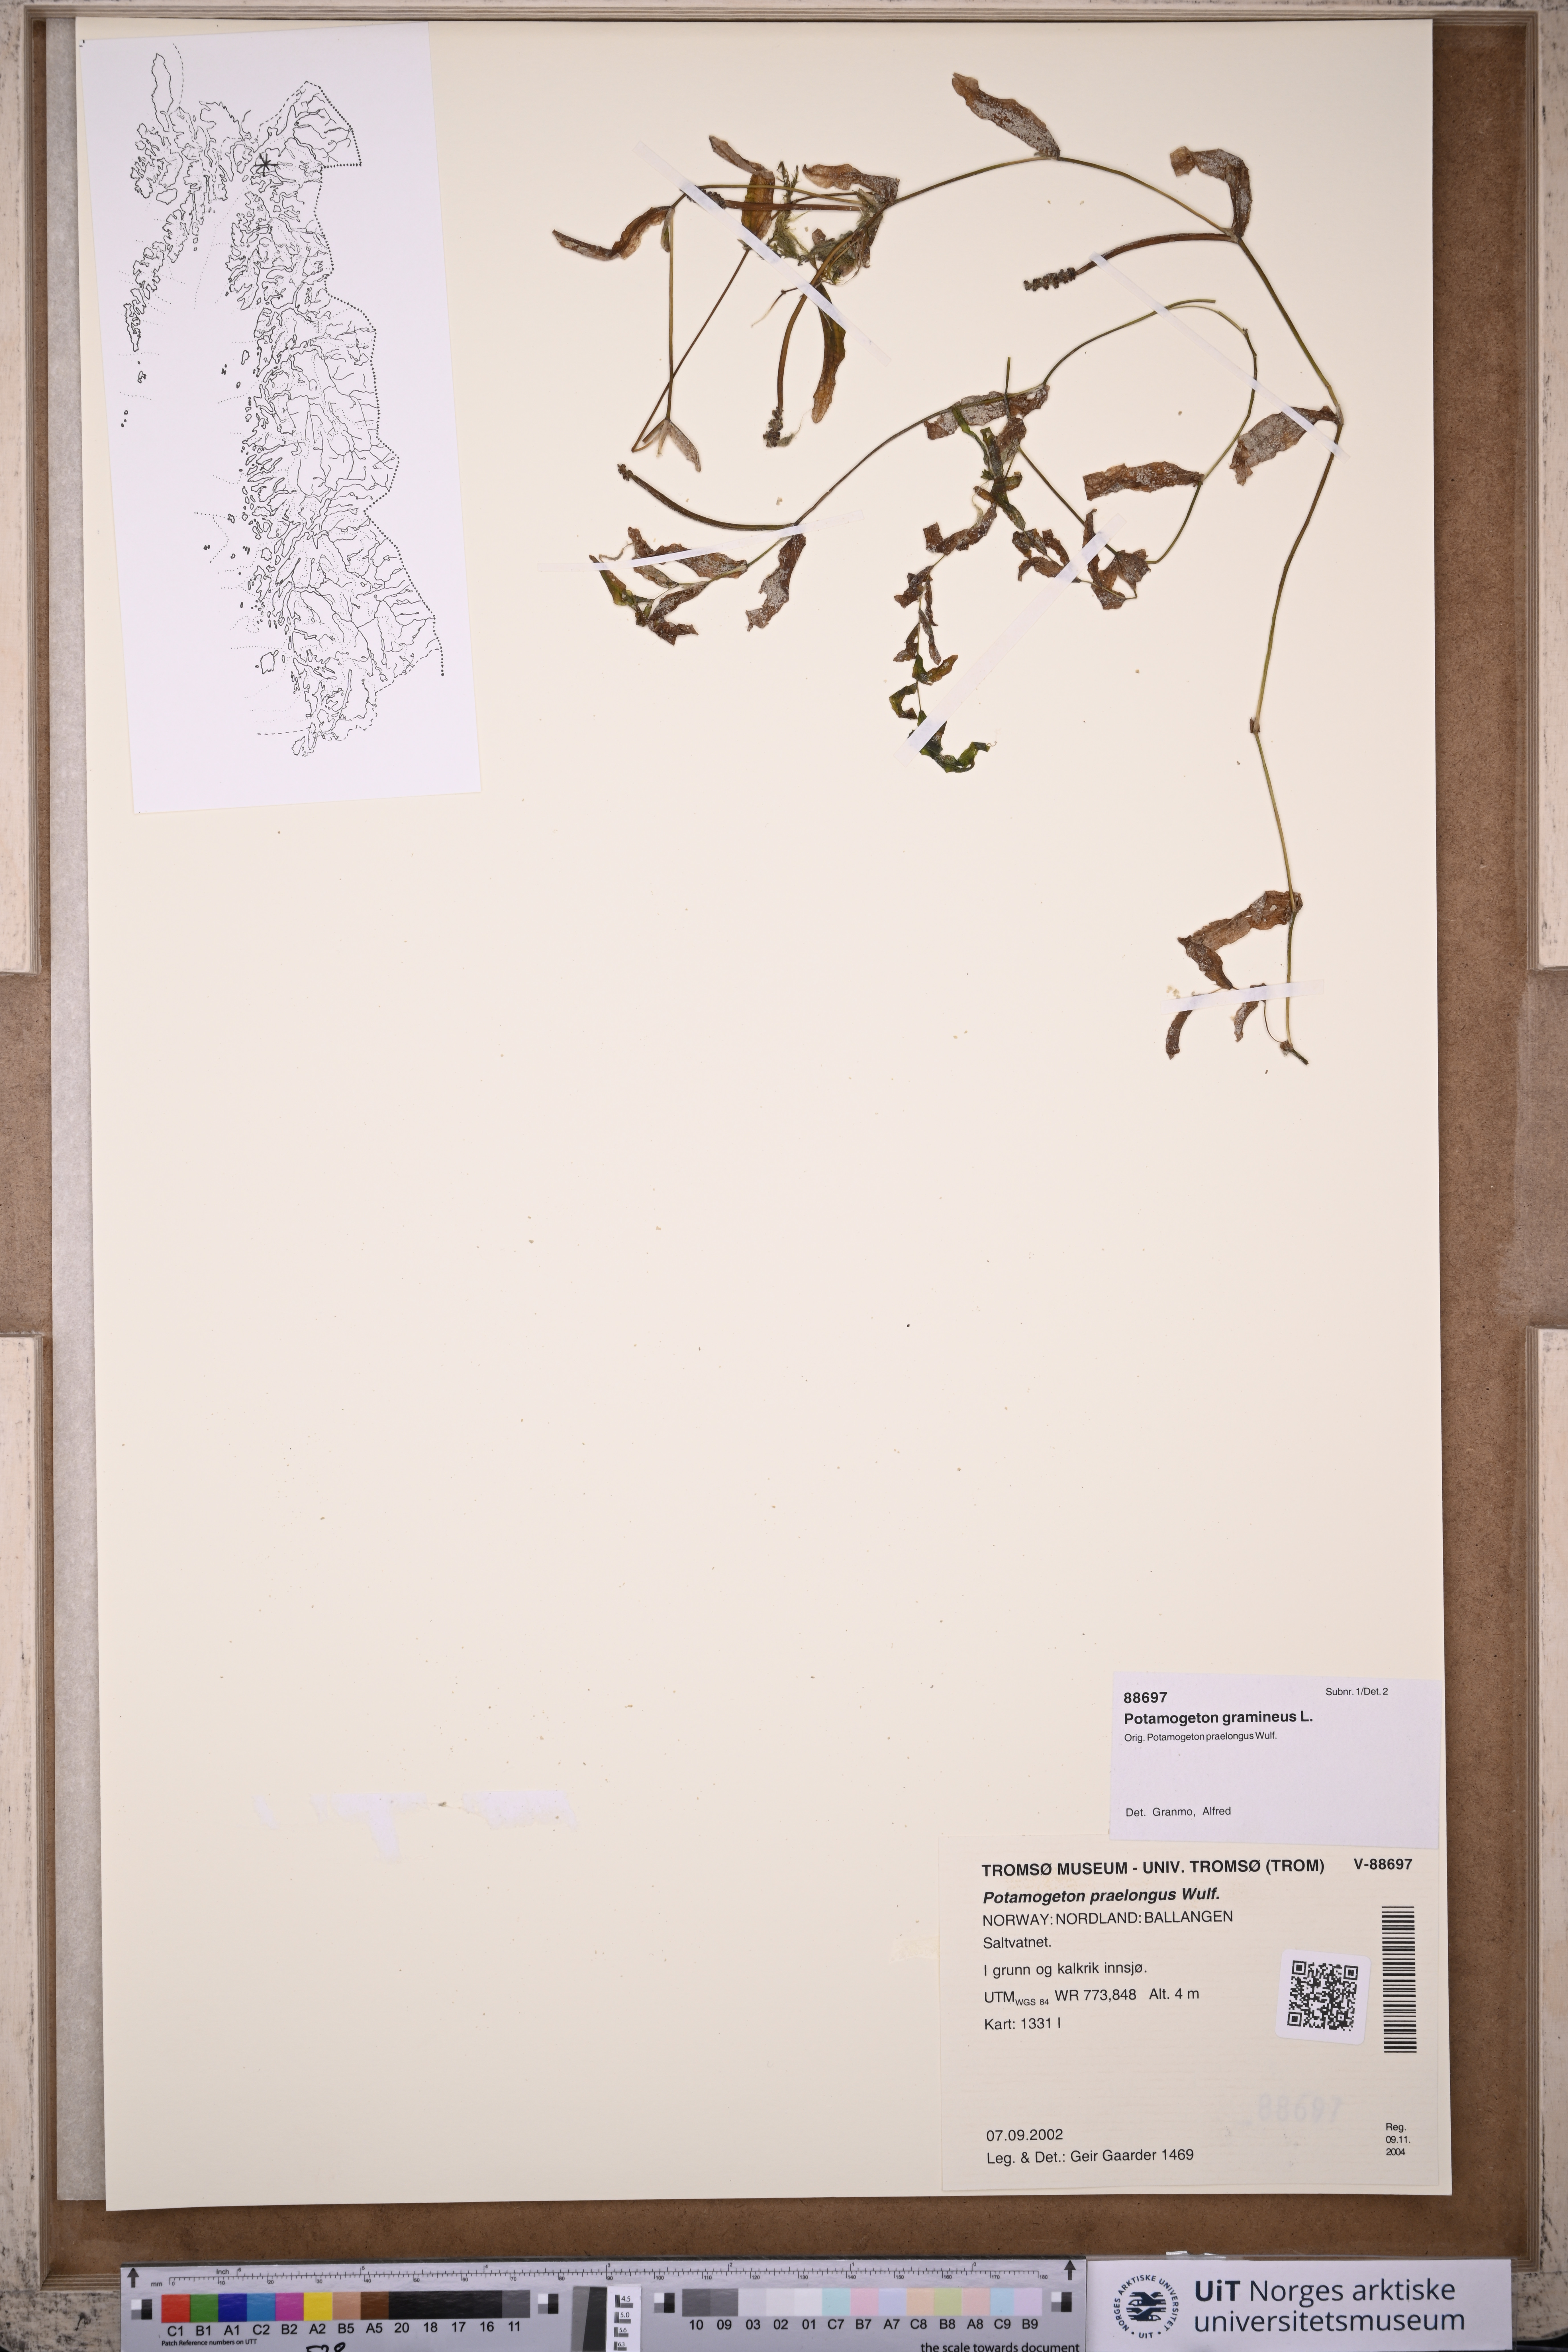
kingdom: Plantae
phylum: Tracheophyta
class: Liliopsida
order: Alismatales
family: Potamogetonaceae
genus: Potamogeton
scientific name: Potamogeton gramineus
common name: Various-leaved pondweed
